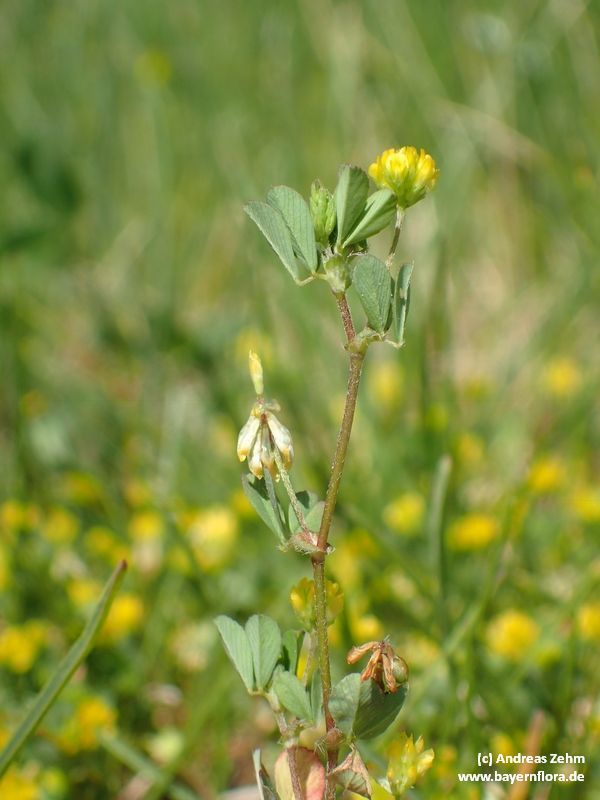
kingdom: Plantae
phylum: Tracheophyta
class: Magnoliopsida
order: Fabales
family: Fabaceae
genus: Trifolium
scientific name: Trifolium dubium
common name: Suckling clover
